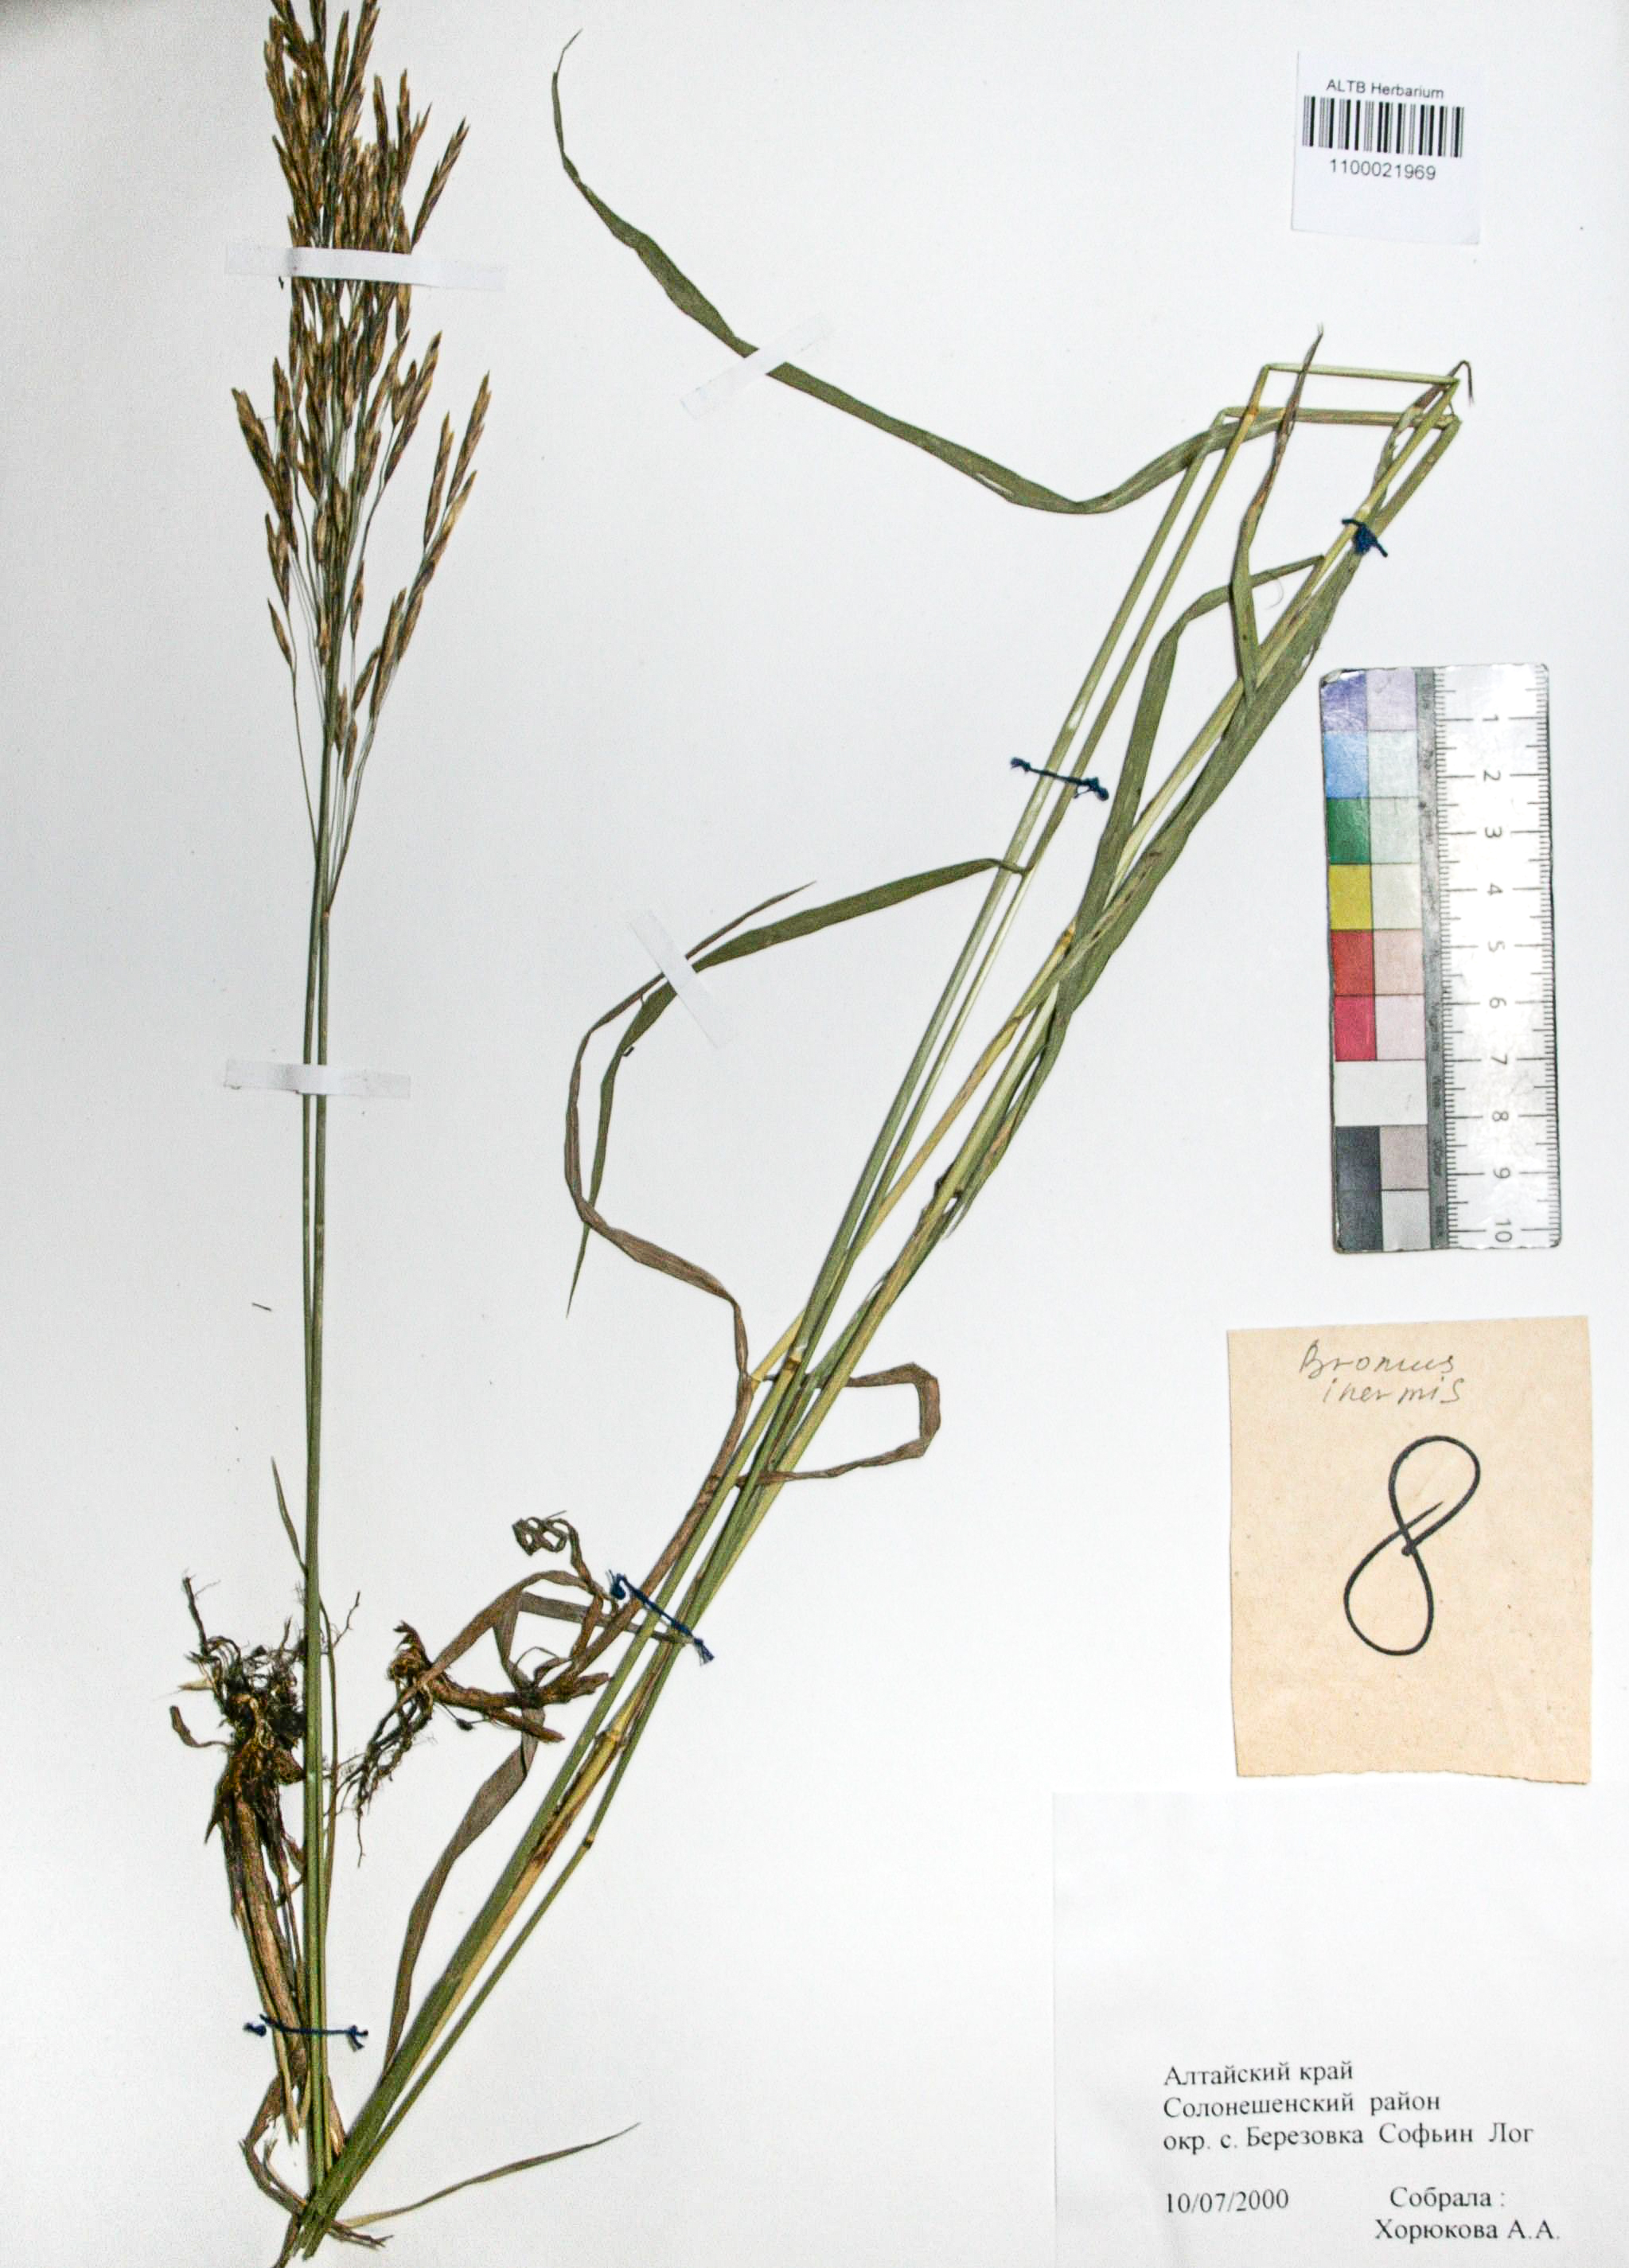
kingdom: Plantae
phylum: Tracheophyta
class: Liliopsida
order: Poales
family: Poaceae
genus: Bromus
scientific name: Bromus inermis
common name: Smooth brome
